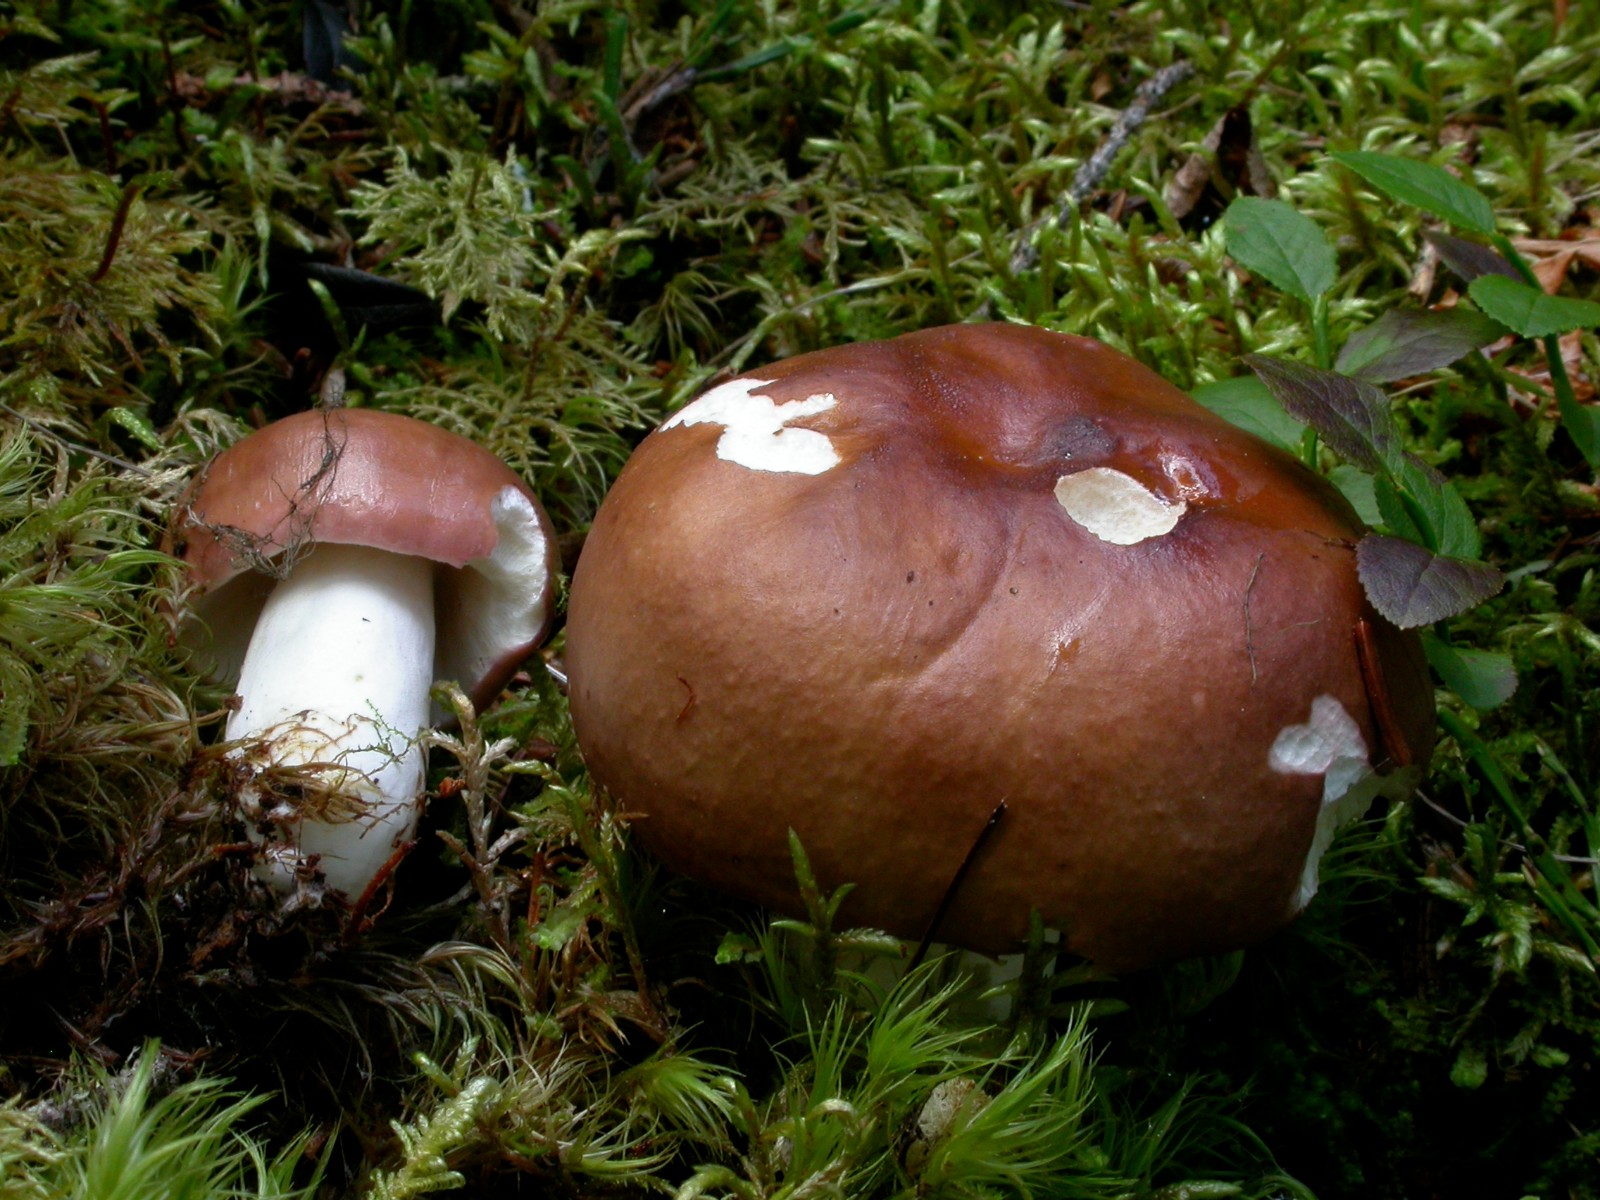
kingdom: Fungi
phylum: Basidiomycota
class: Agaricomycetes
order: Russulales
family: Russulaceae
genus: Russula
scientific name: Russula
